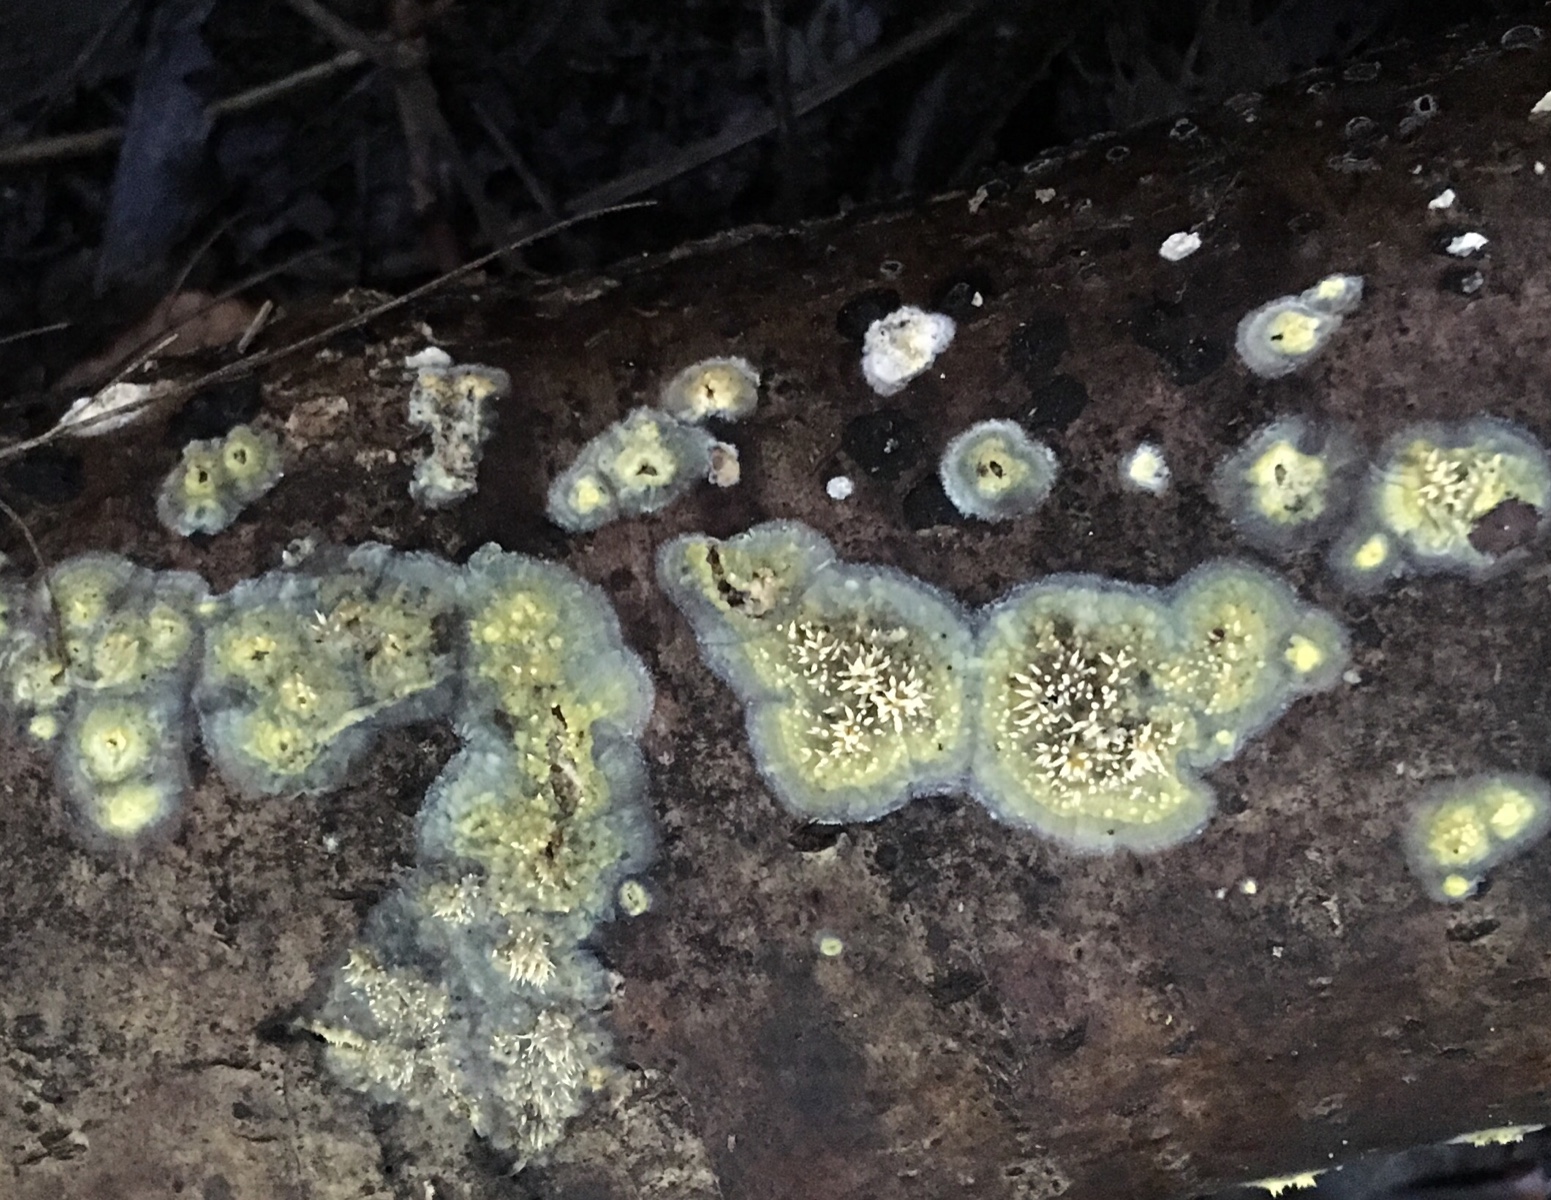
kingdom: Fungi
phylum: Basidiomycota
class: Agaricomycetes
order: Polyporales
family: Meruliaceae
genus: Mycoacia
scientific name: Mycoacia uda
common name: citrongul vokspig
